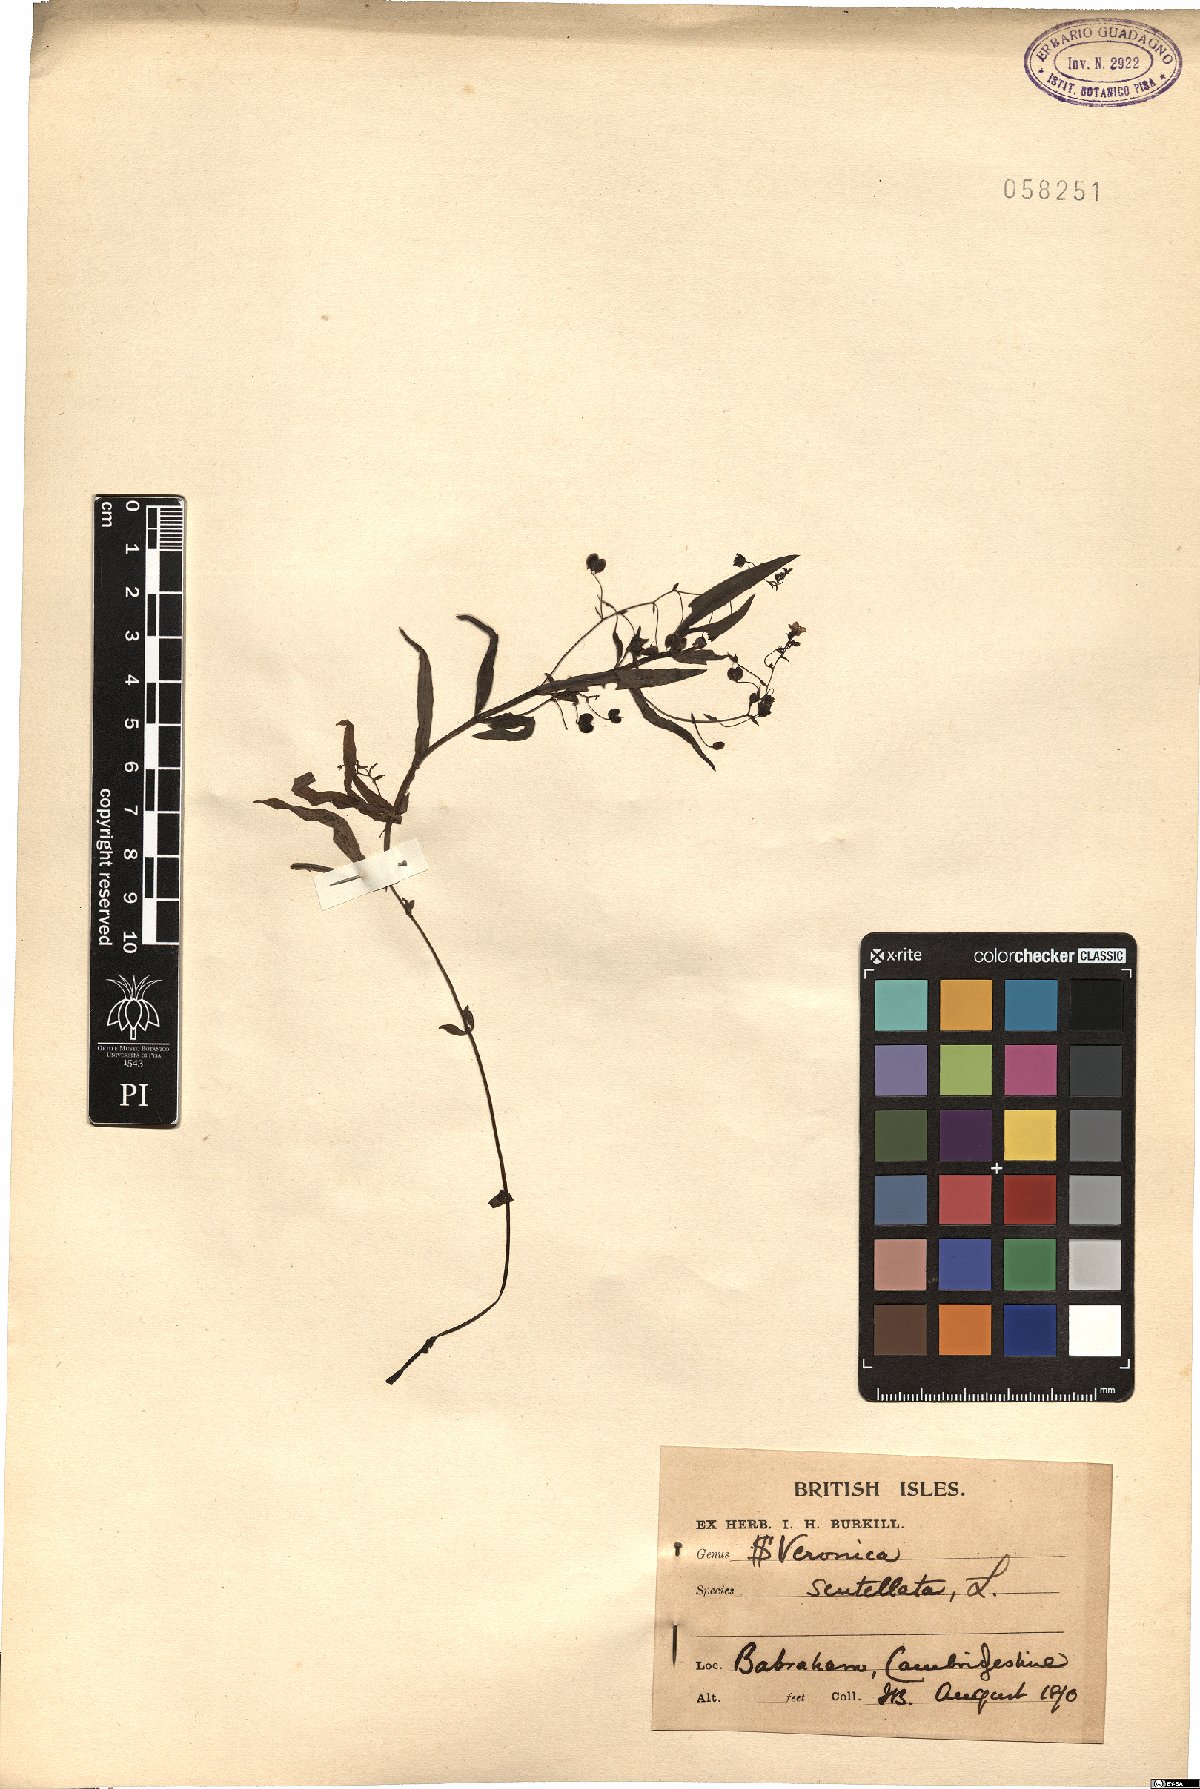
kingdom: Plantae
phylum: Tracheophyta
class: Magnoliopsida
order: Lamiales
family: Plantaginaceae
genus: Veronica
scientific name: Veronica scutellata
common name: Marsh speedwell
